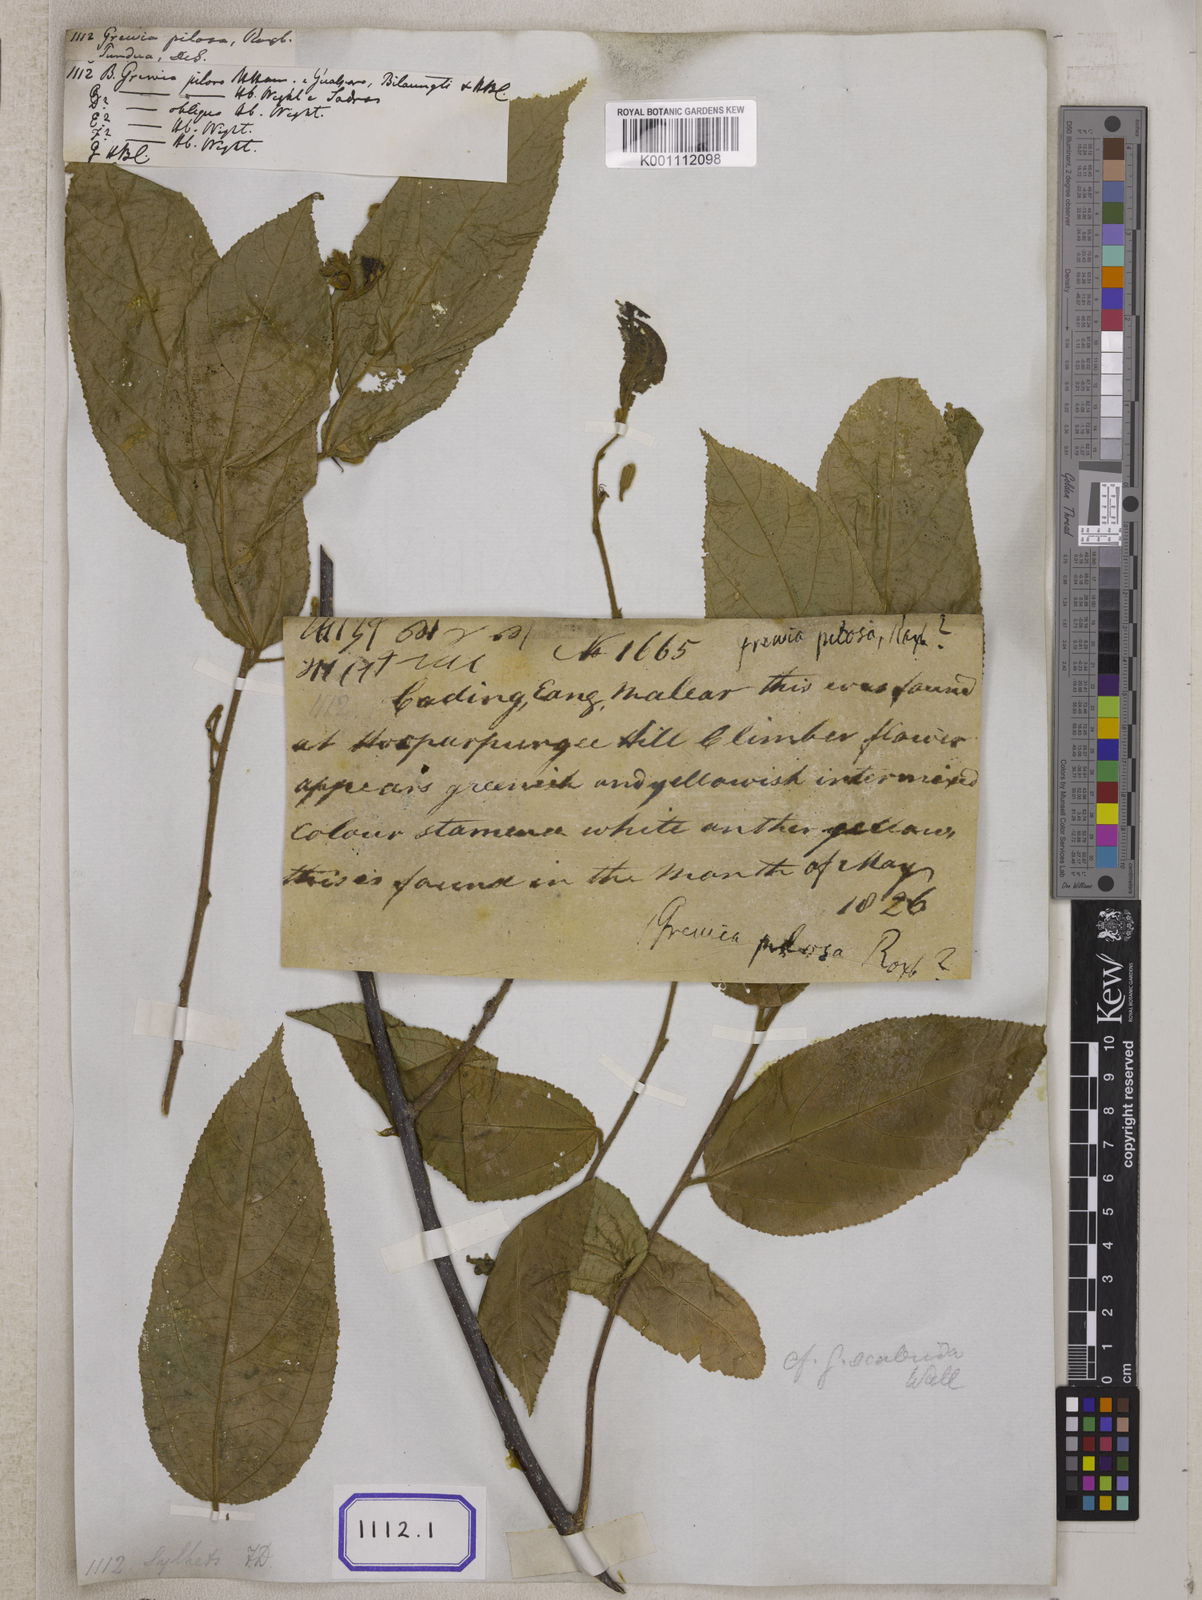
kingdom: Plantae
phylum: Tracheophyta
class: Magnoliopsida
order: Malvales
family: Malvaceae
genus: Grewia
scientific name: Grewia hirsuta
